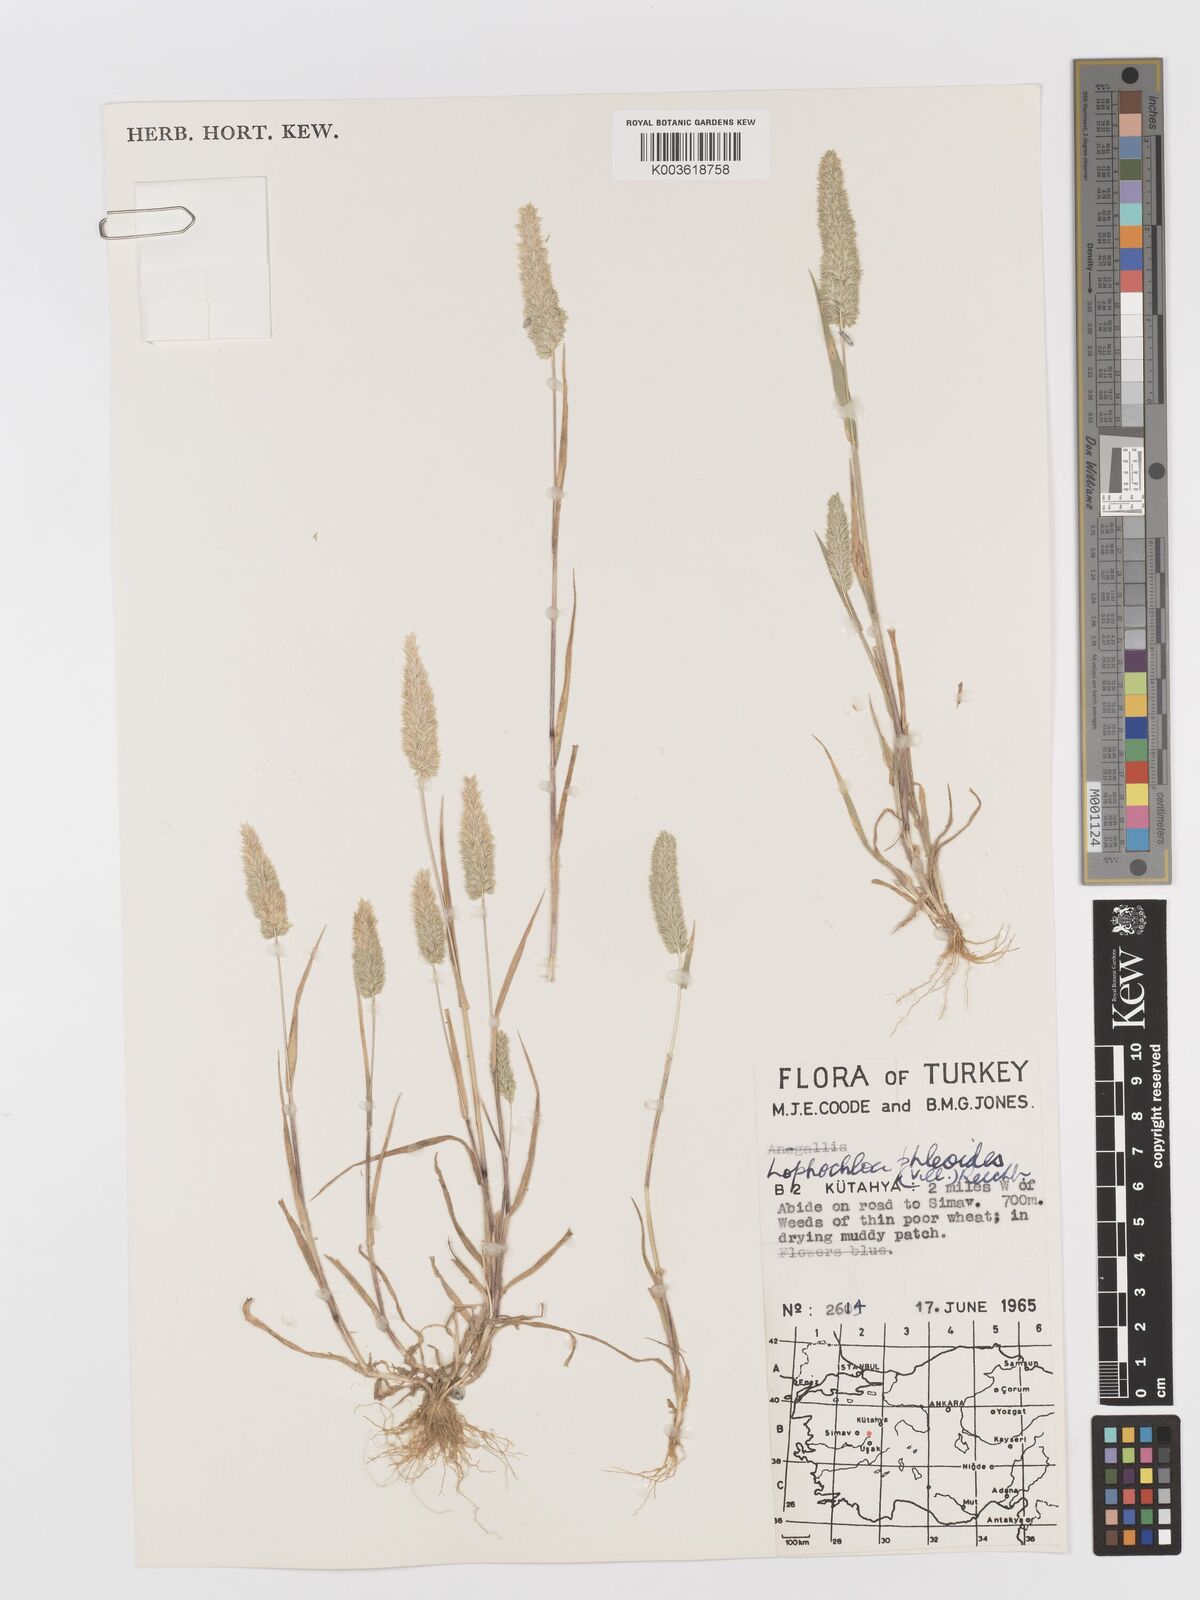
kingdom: Plantae
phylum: Tracheophyta
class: Liliopsida
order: Poales
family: Poaceae
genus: Rostraria
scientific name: Rostraria cristata
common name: Mediterranean hair-grass
